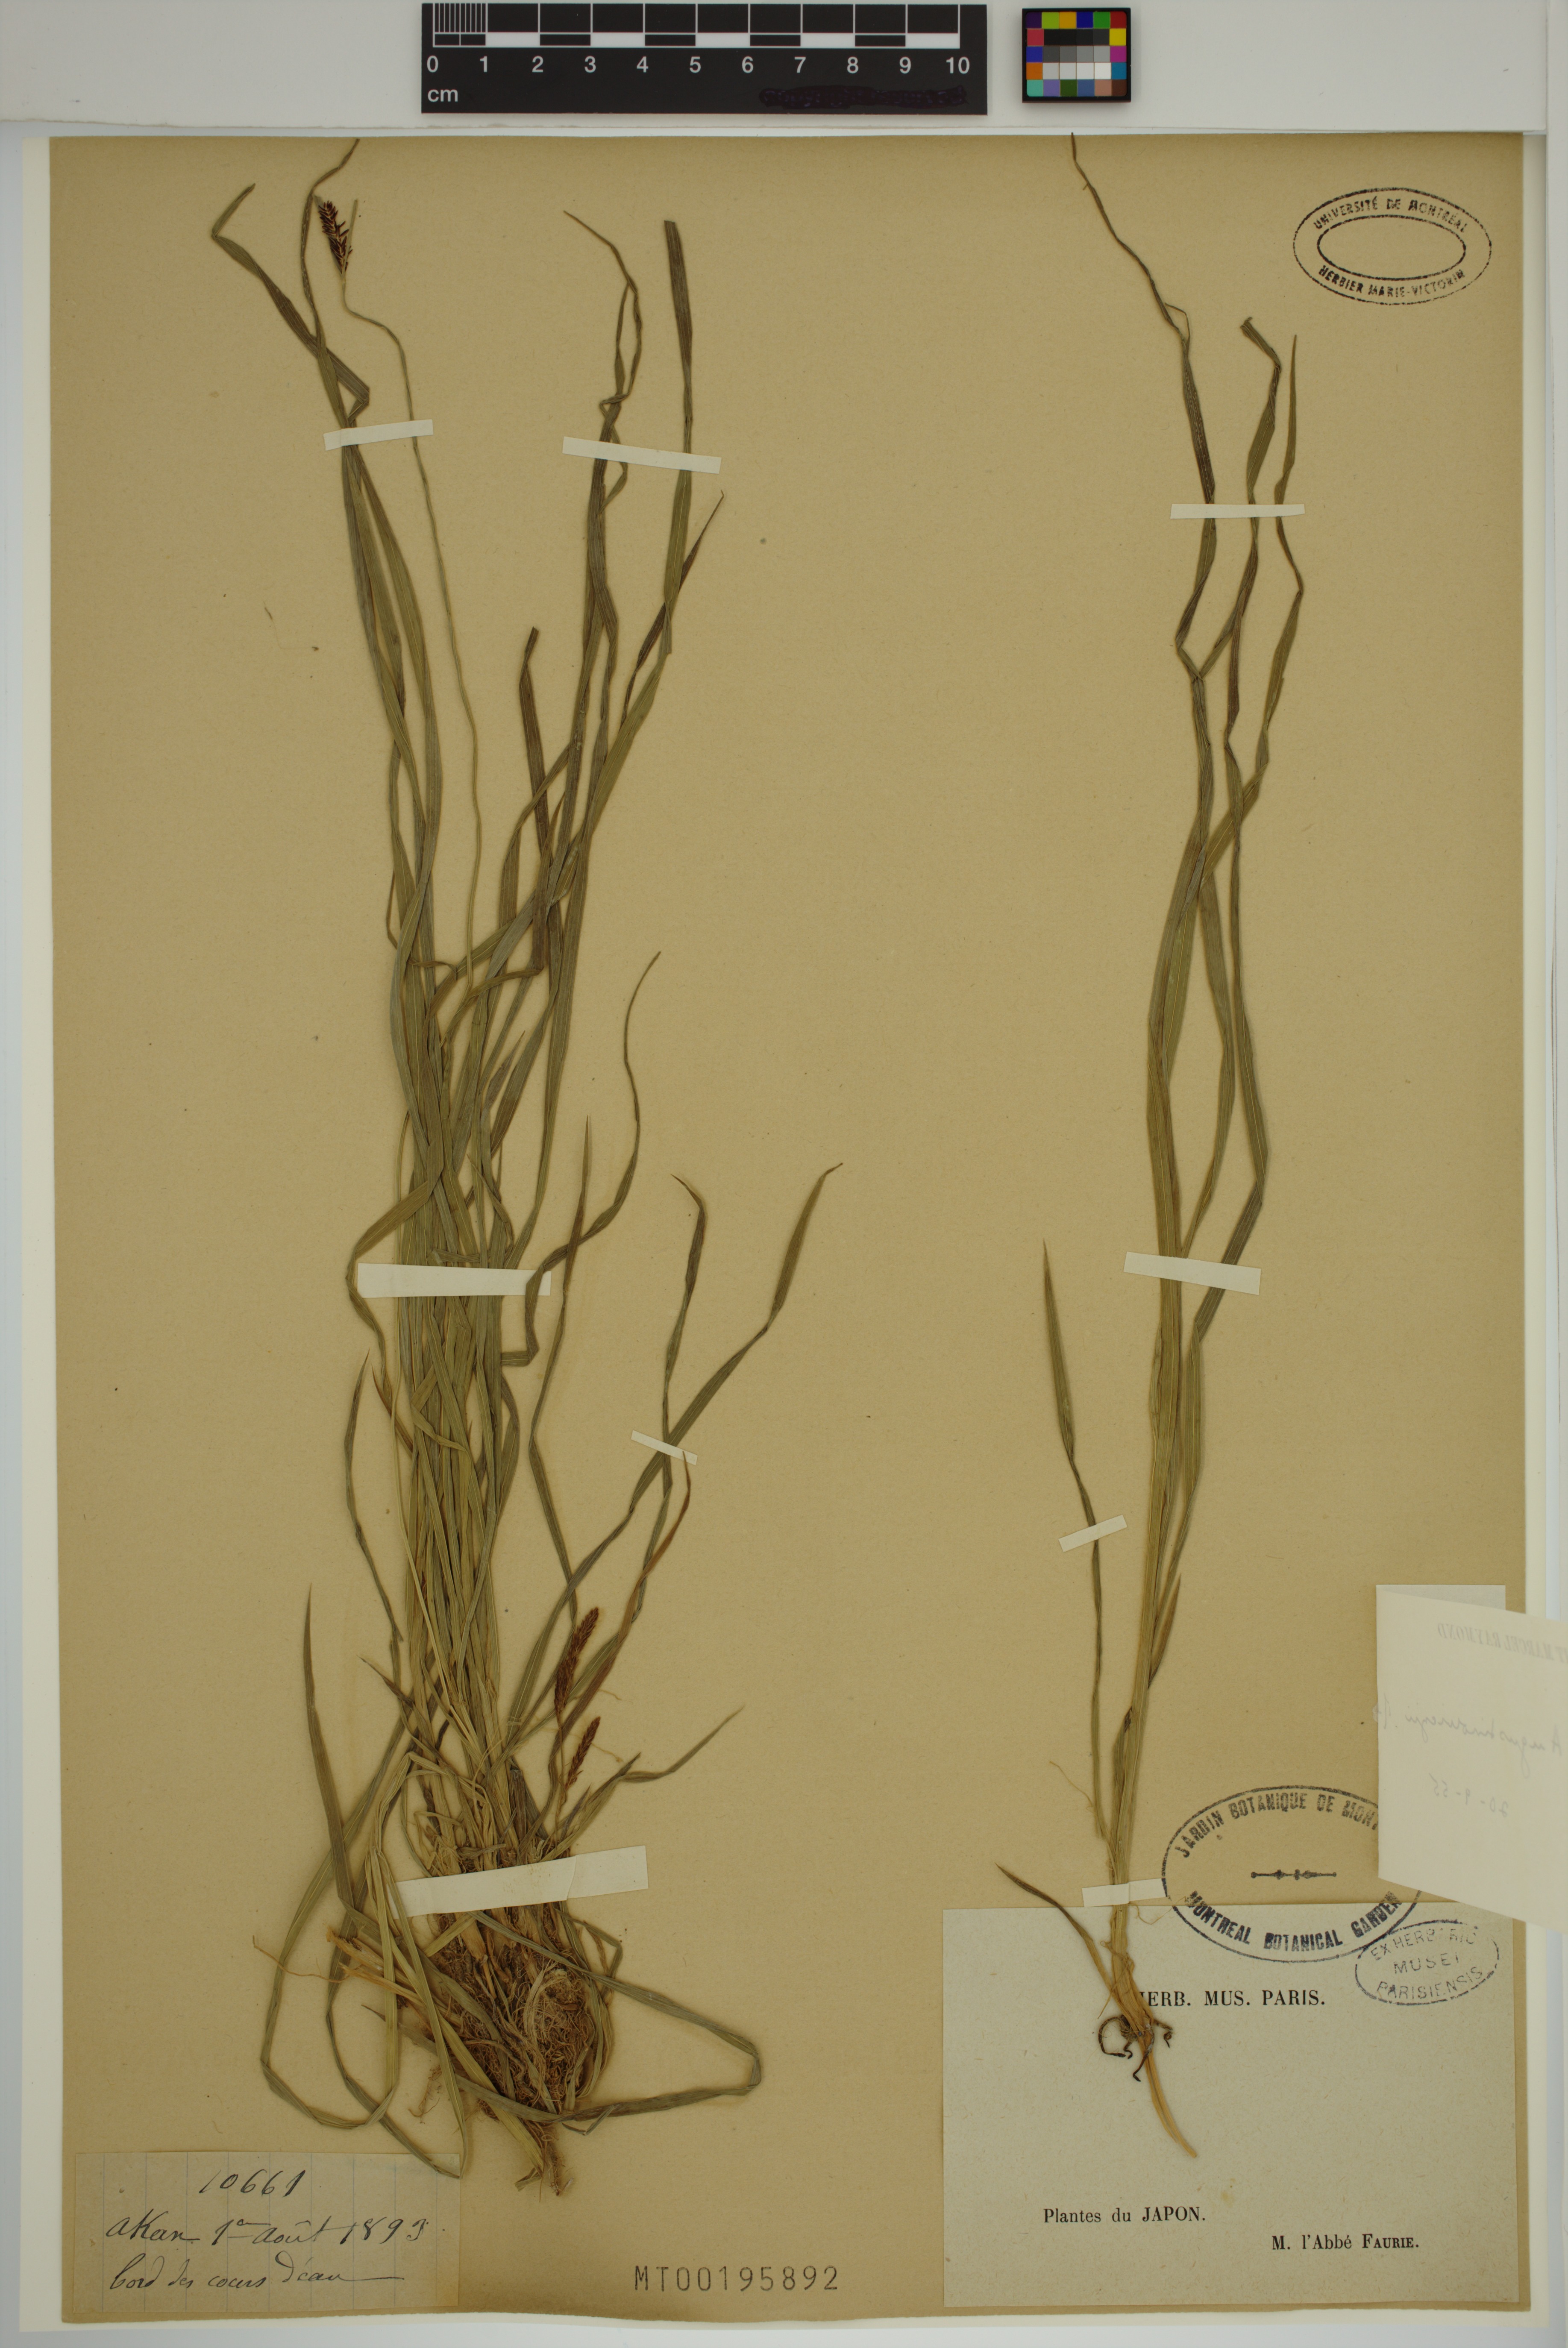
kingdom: Plantae
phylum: Tracheophyta
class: Liliopsida
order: Poales
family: Cyperaceae
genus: Carex
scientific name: Carex augustinowiczii
